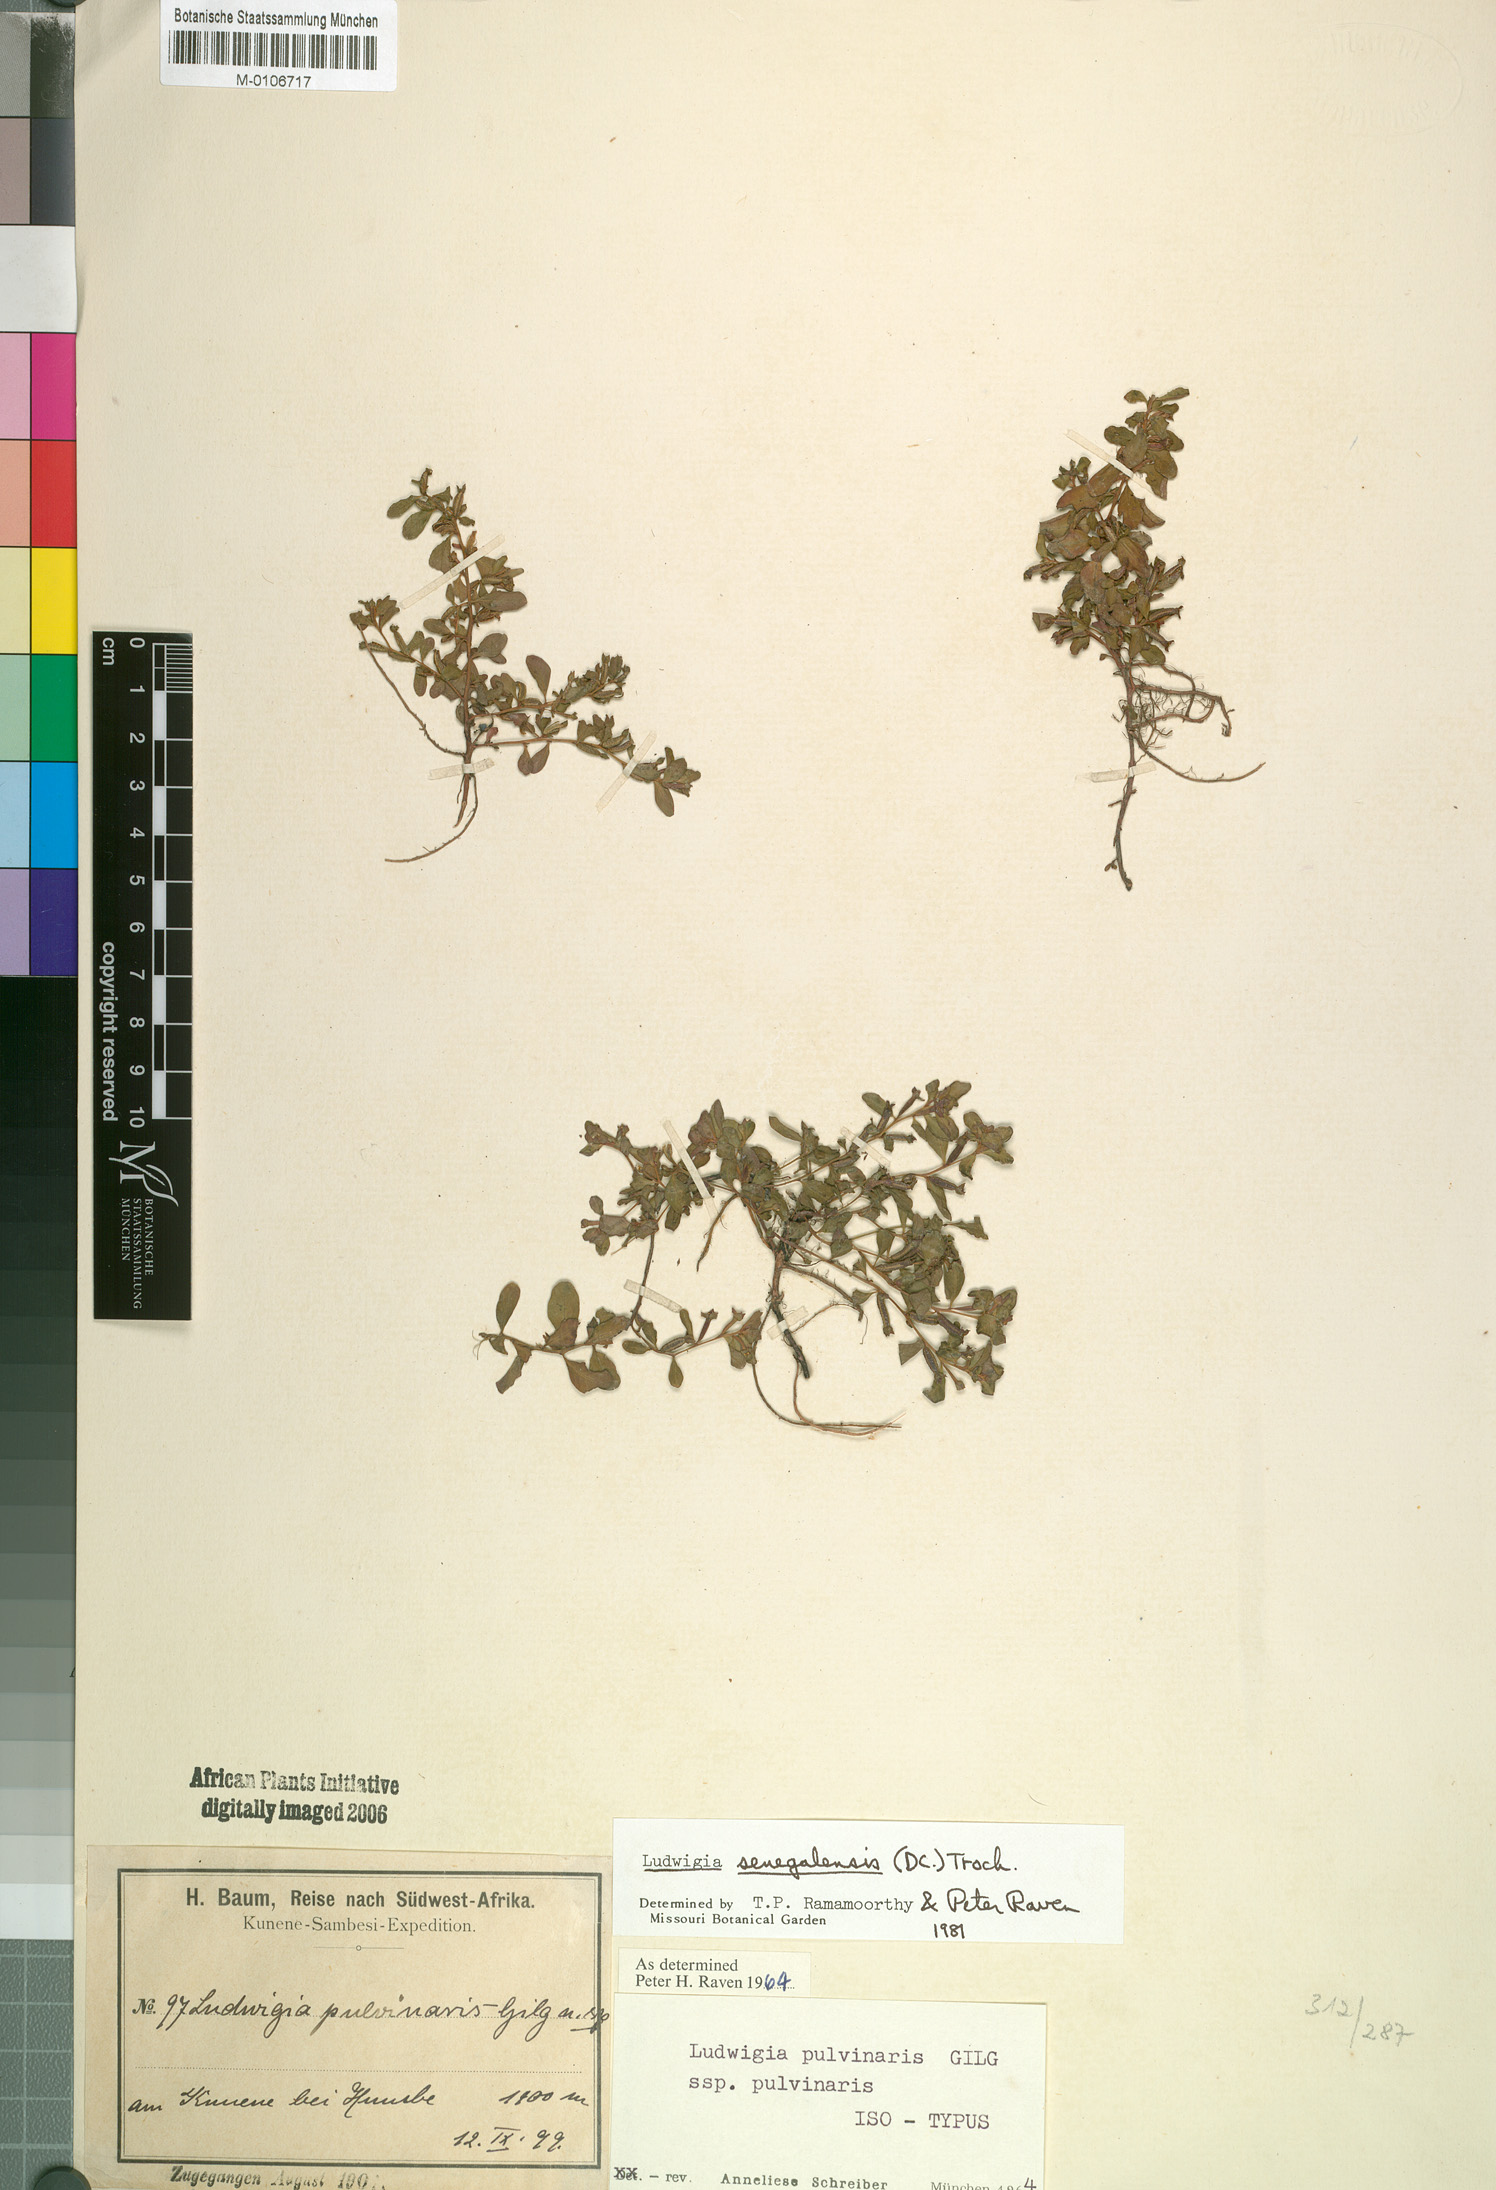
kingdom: Plantae
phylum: Tracheophyta
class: Magnoliopsida
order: Myrtales
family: Onagraceae
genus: Ludwigia
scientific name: Ludwigia senegalensis
